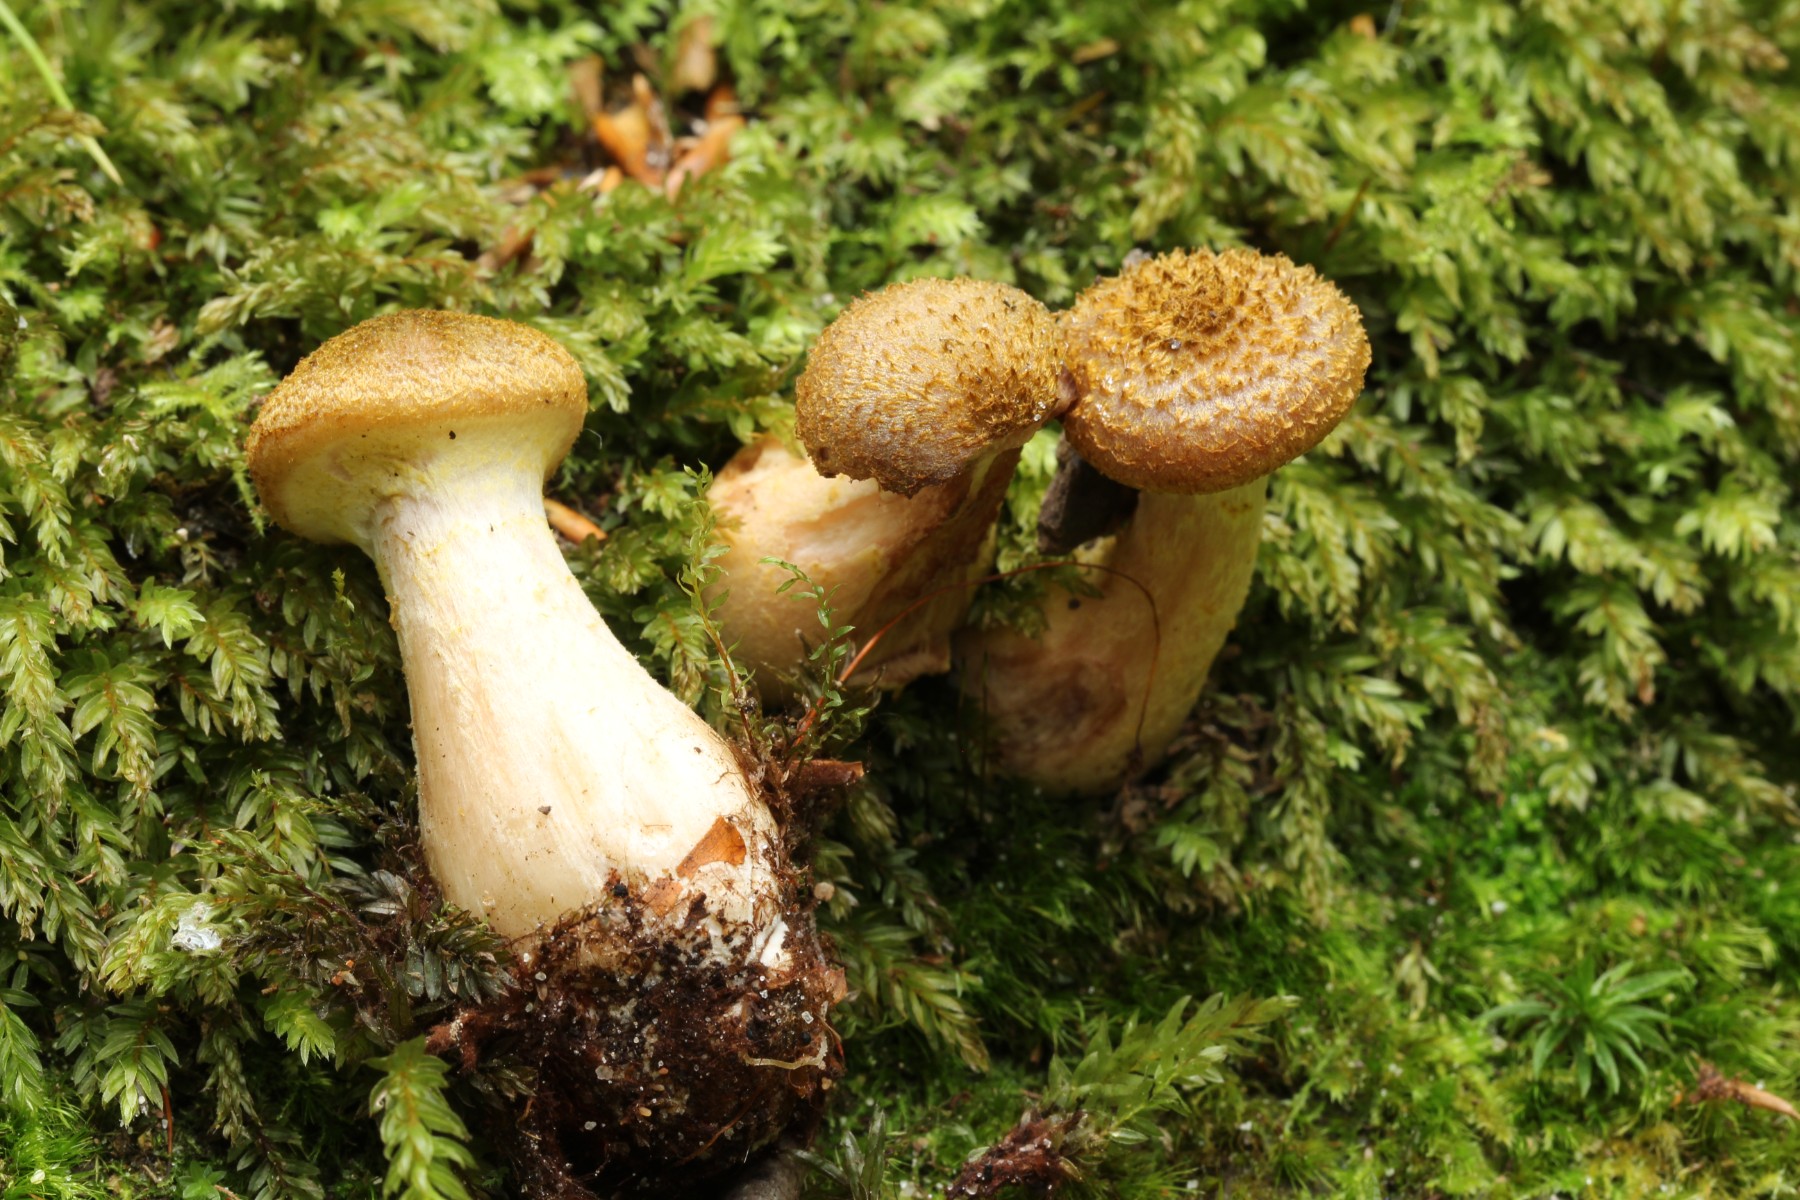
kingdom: Fungi
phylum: Basidiomycota
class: Agaricomycetes
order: Agaricales
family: Physalacriaceae
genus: Armillaria
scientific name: Armillaria lutea
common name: køllestokket honningsvamp
